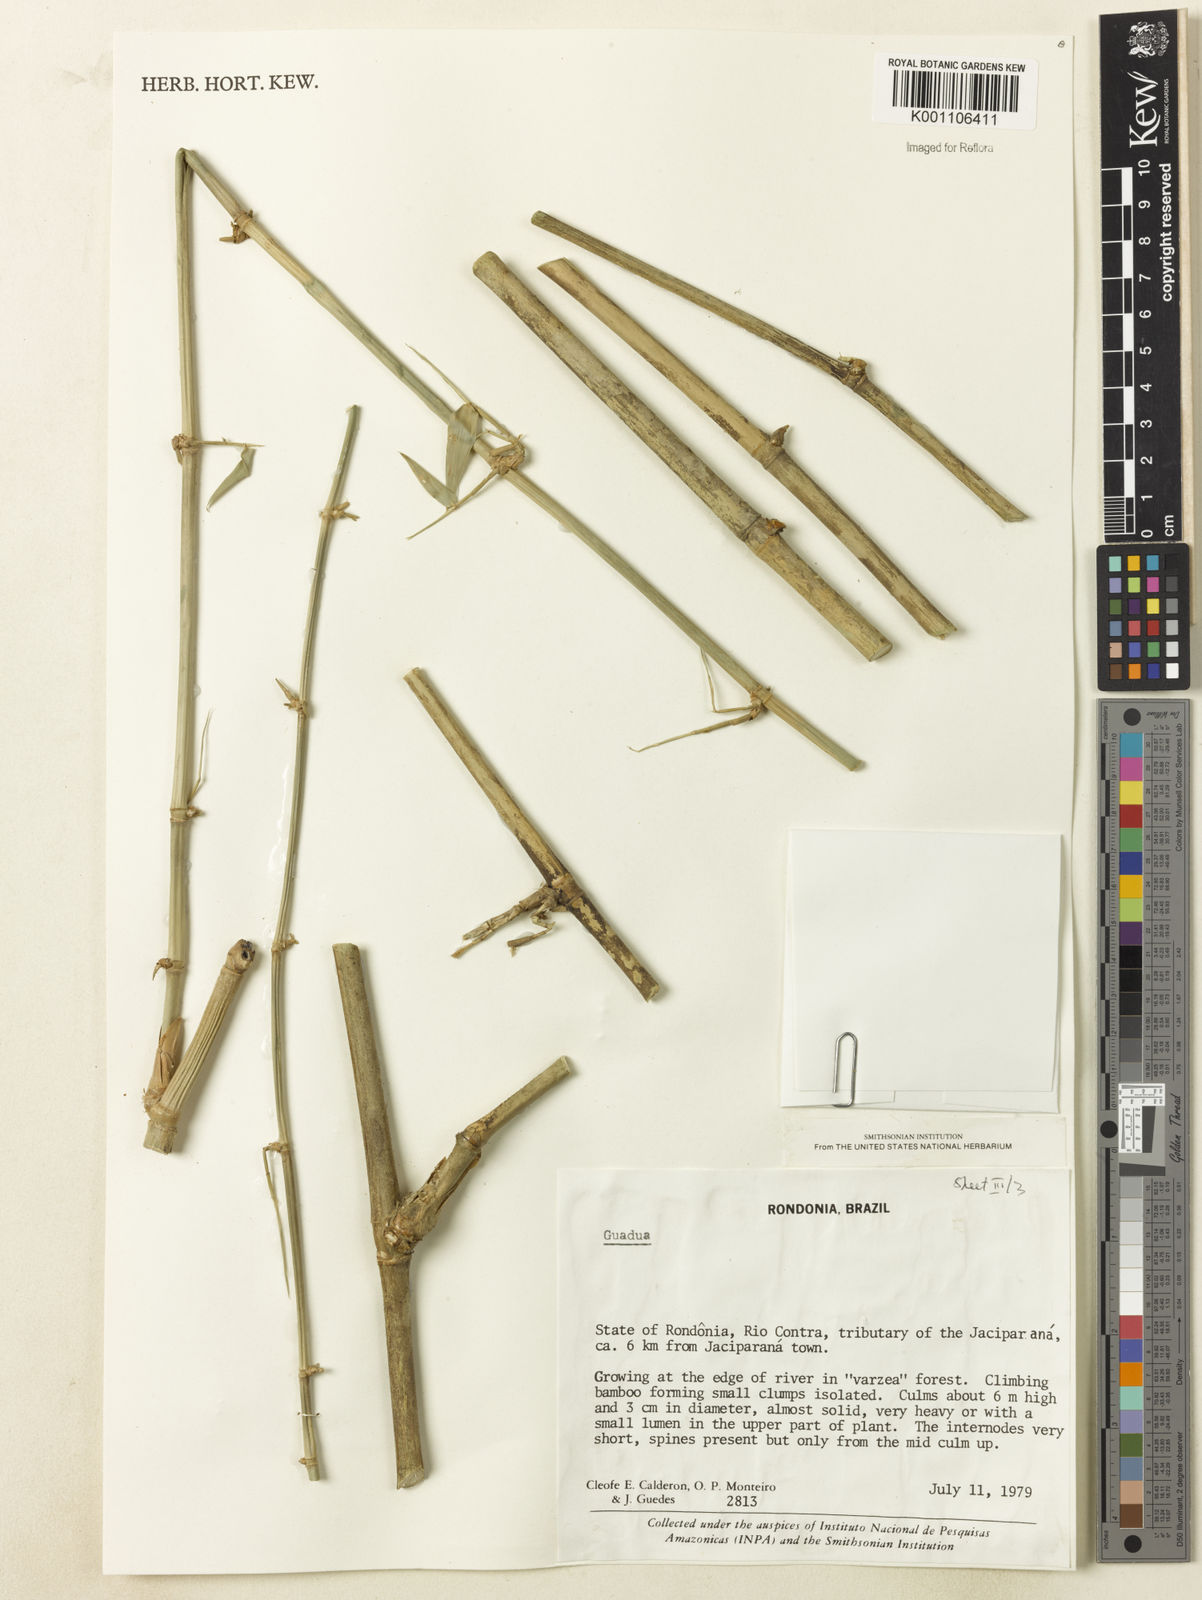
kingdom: Plantae
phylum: Tracheophyta
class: Liliopsida
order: Poales
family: Poaceae
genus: Guadua
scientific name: Guadua
